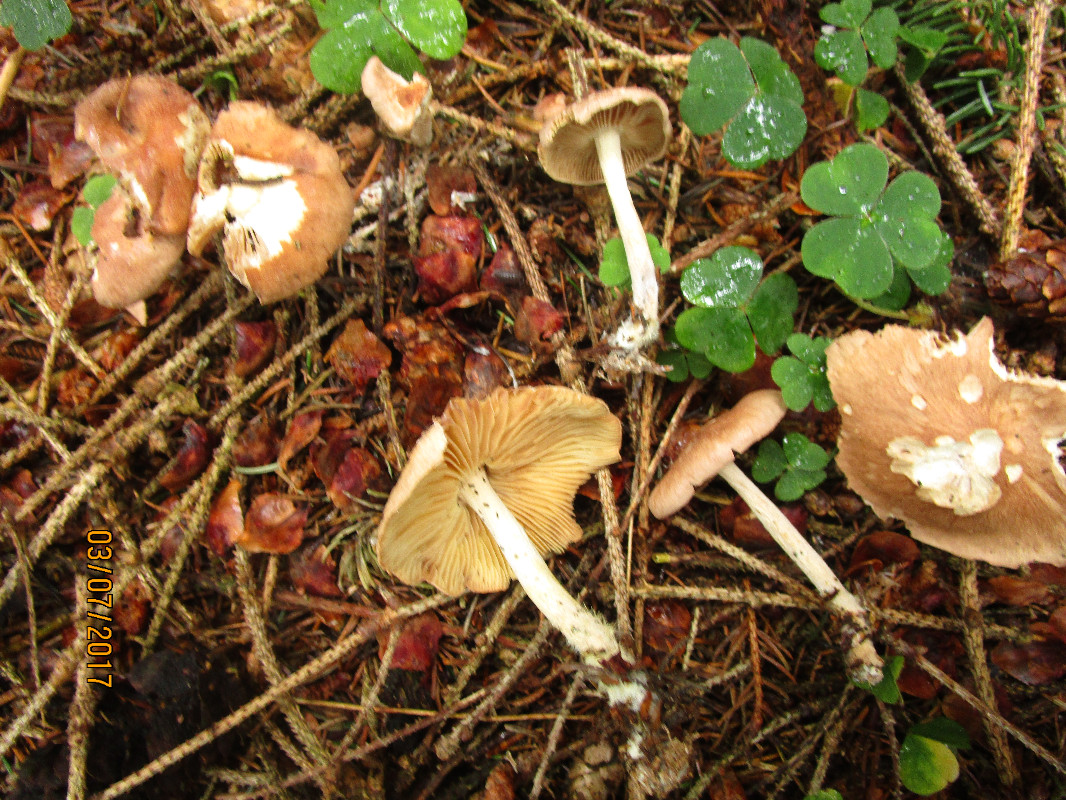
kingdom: Fungi
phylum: Basidiomycota
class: Agaricomycetes
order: Agaricales
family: Omphalotaceae
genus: Collybiopsis
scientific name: Collybiopsis peronata
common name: bestøvlet fladhat
